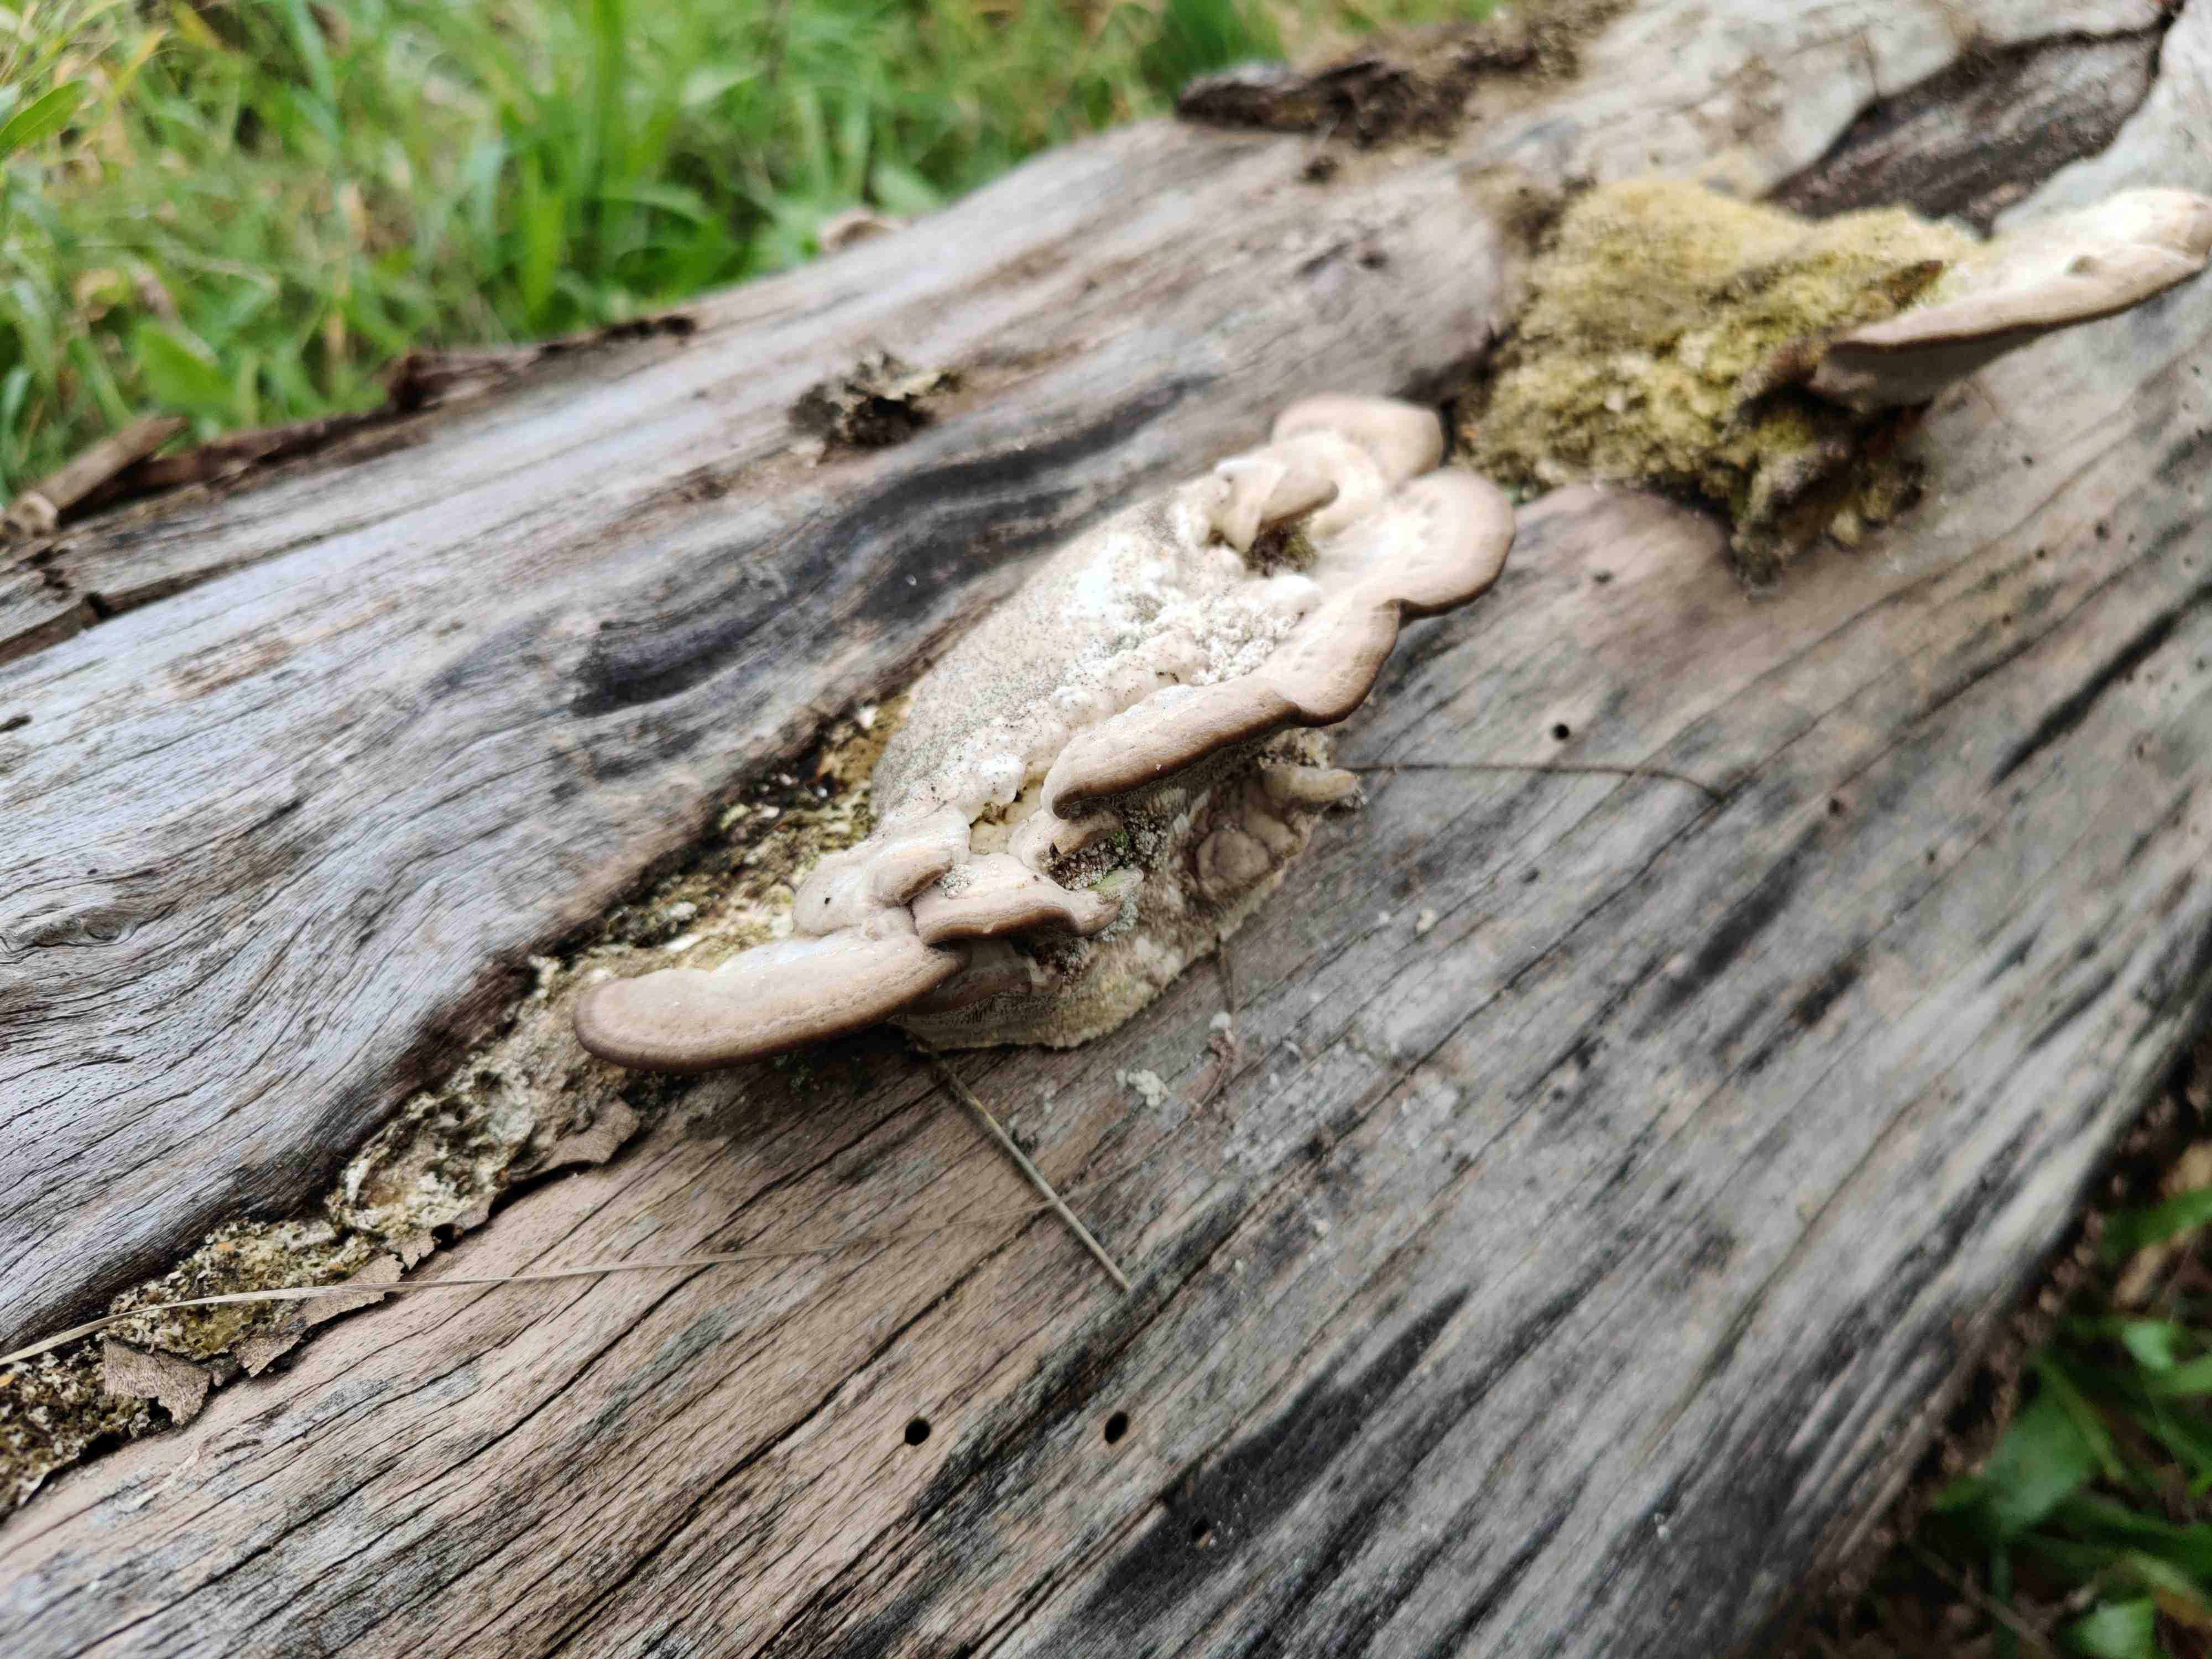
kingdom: Fungi
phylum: Basidiomycota
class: Agaricomycetes
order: Polyporales
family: Polyporaceae
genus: Trametes
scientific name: Trametes
